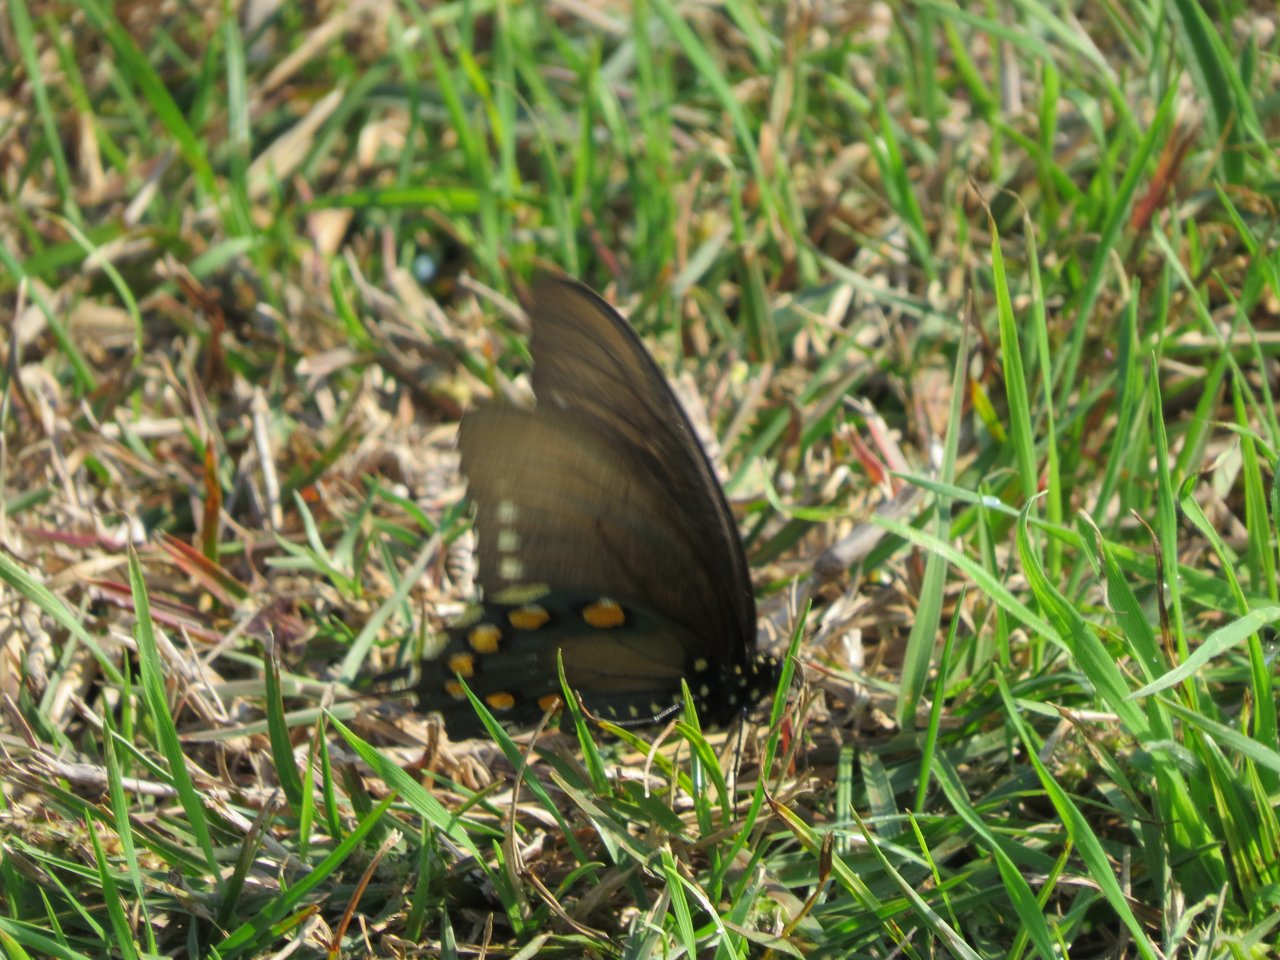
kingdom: Animalia
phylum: Arthropoda
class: Insecta
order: Lepidoptera
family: Papilionidae
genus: Battus
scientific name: Battus philenor
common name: Pipevine Swallowtail
